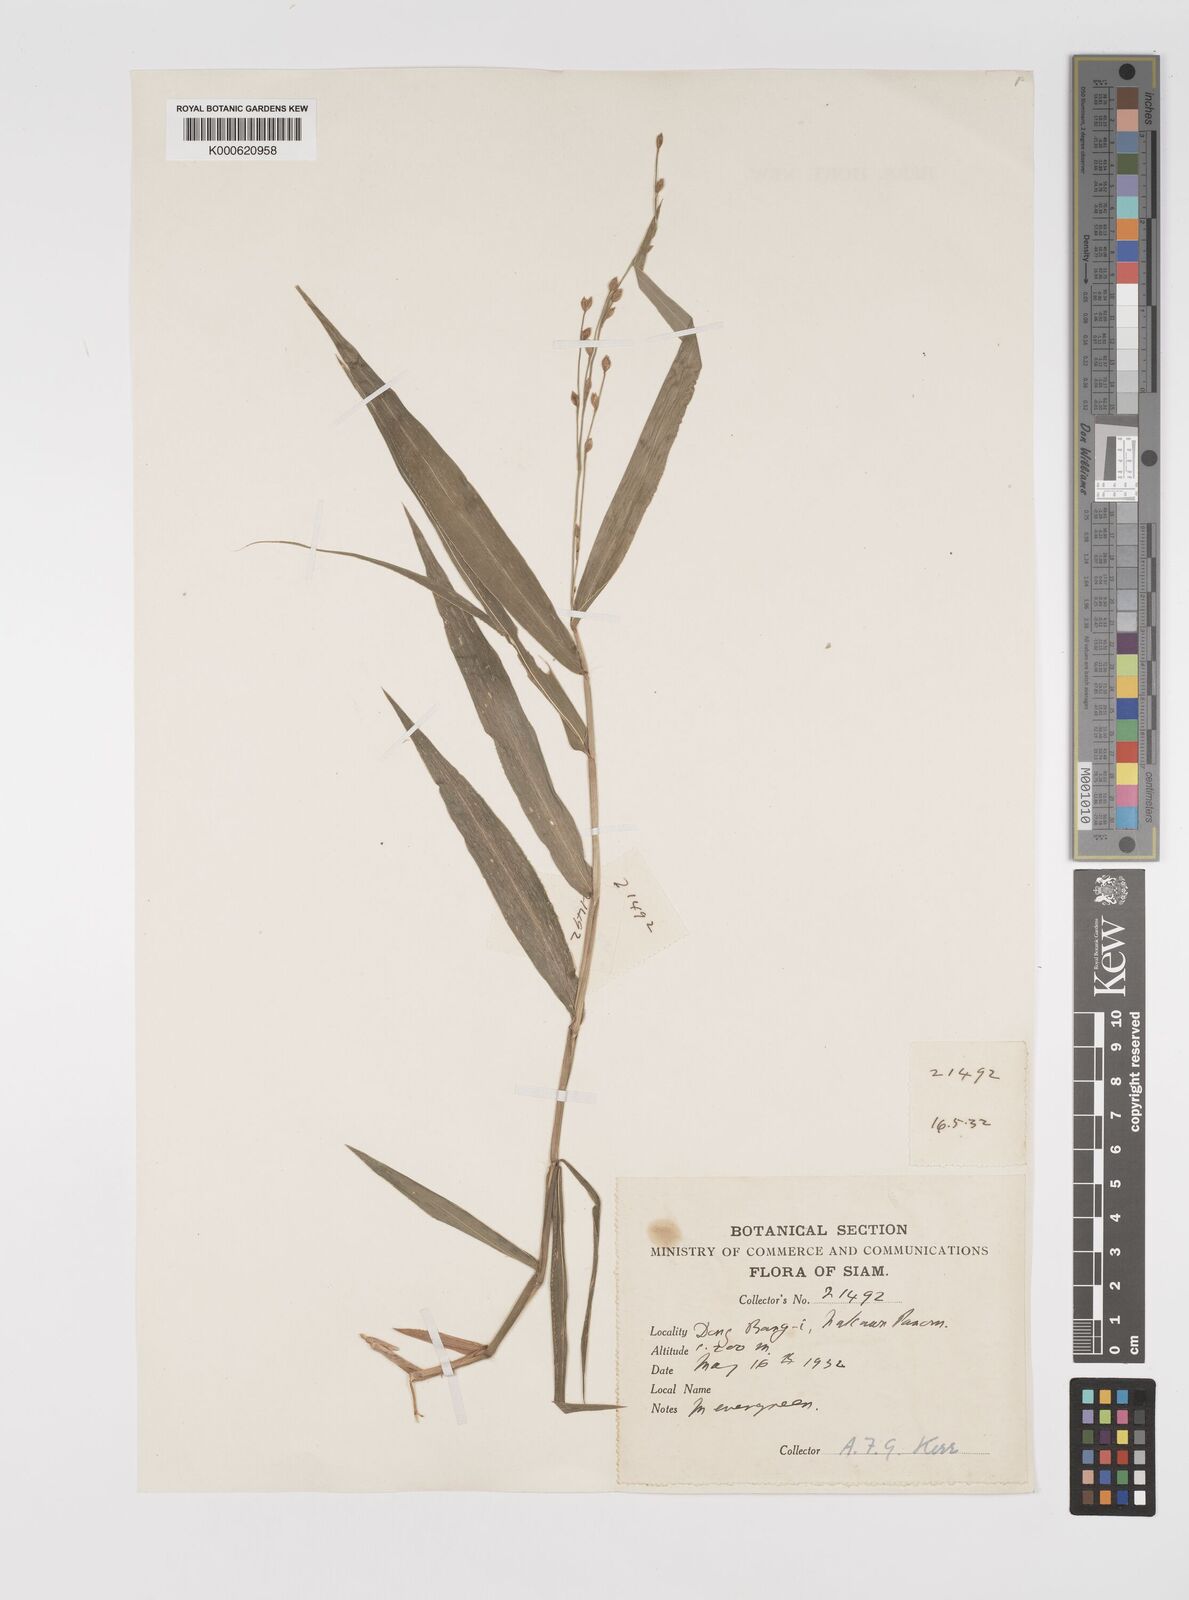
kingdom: Plantae
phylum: Tracheophyta
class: Liliopsida
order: Poales
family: Poaceae
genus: Acroceras
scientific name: Acroceras
